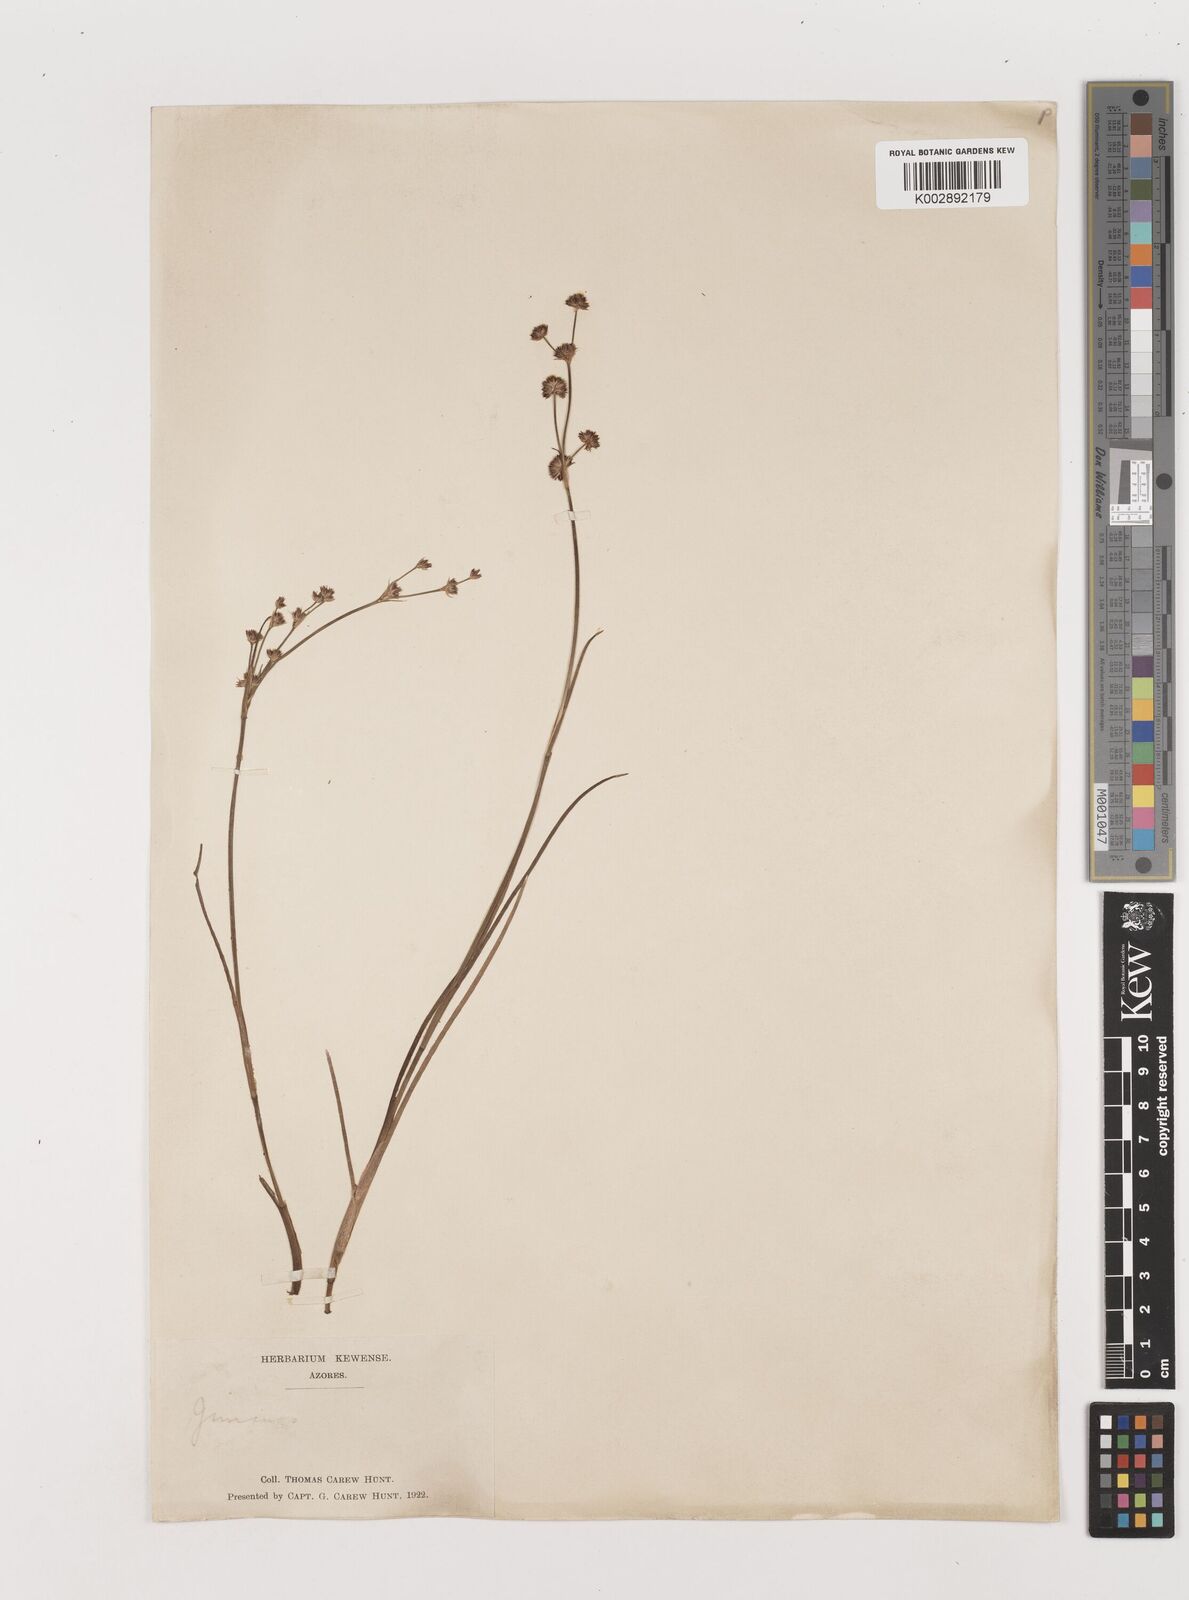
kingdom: Plantae
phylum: Tracheophyta
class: Liliopsida
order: Poales
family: Juncaceae
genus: Juncus
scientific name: Juncus articulatus
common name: Jointed rush
